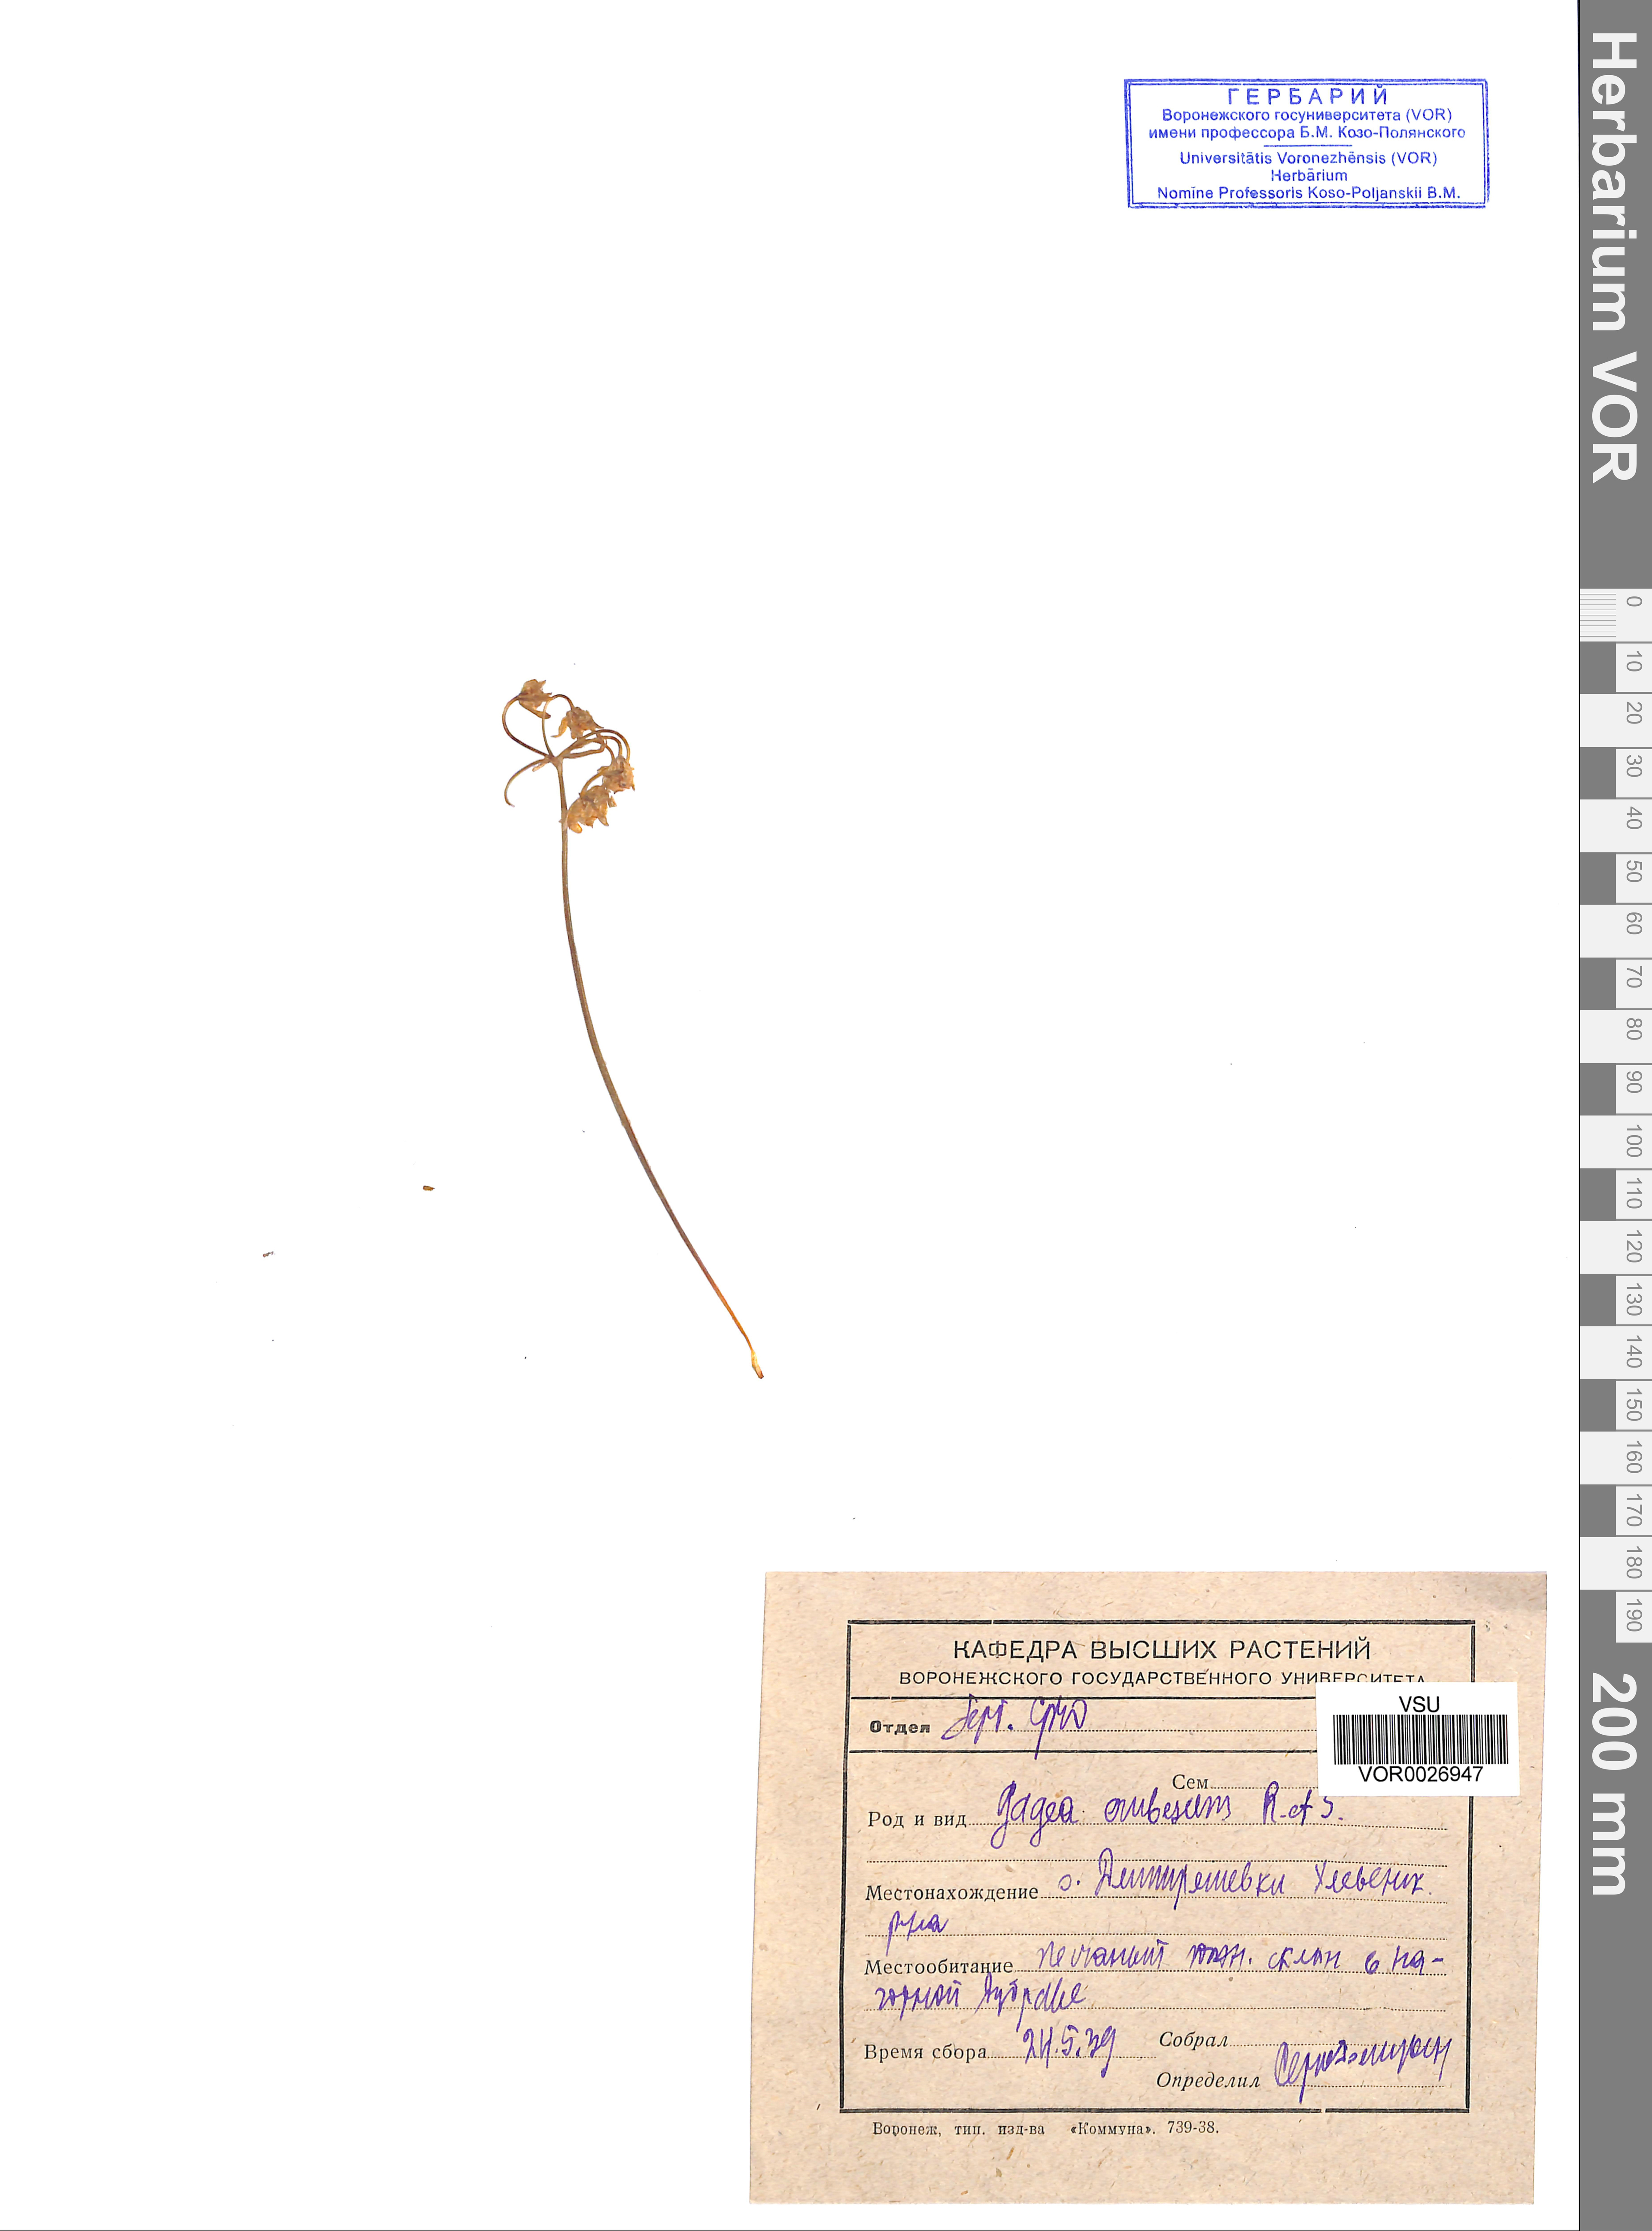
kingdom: Plantae
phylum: Tracheophyta
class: Liliopsida
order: Liliales
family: Liliaceae
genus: Gagea
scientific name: Gagea fragifera
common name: Lily
